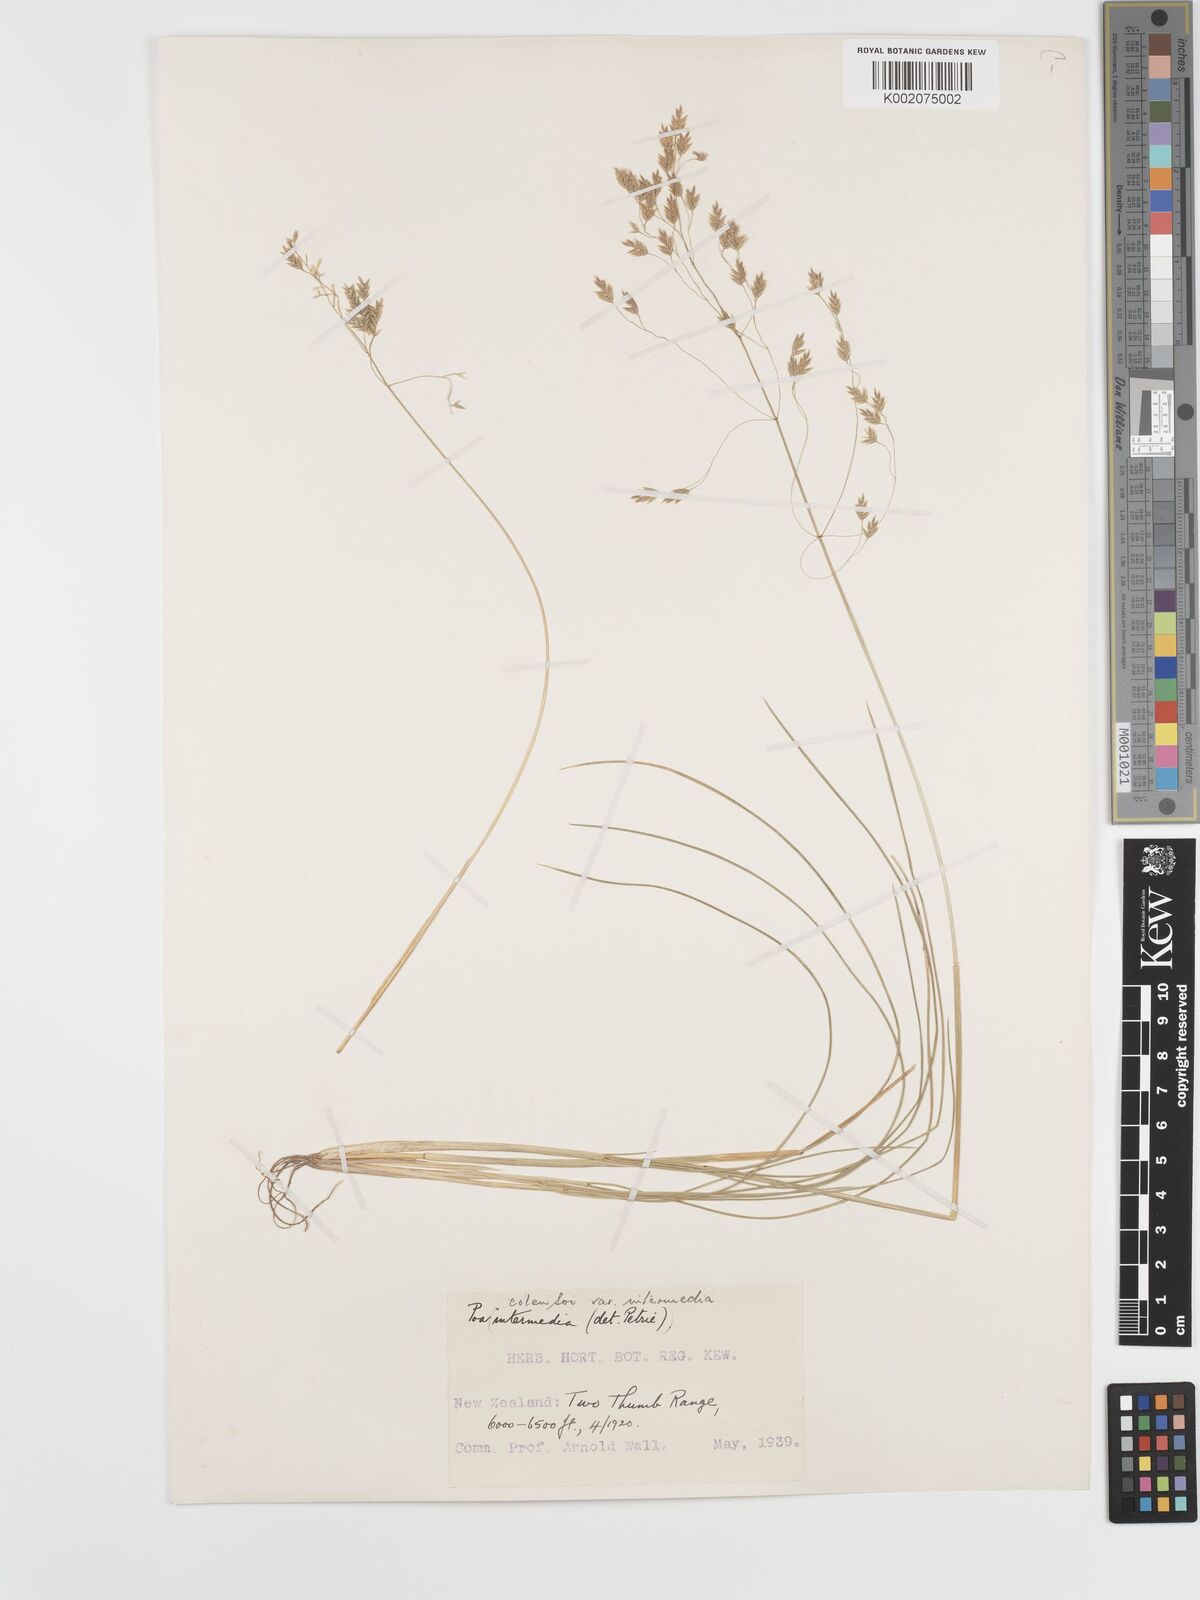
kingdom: Plantae
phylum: Tracheophyta
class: Liliopsida
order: Poales
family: Poaceae
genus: Poa
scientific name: Poa colensoi
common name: Blue tussock
